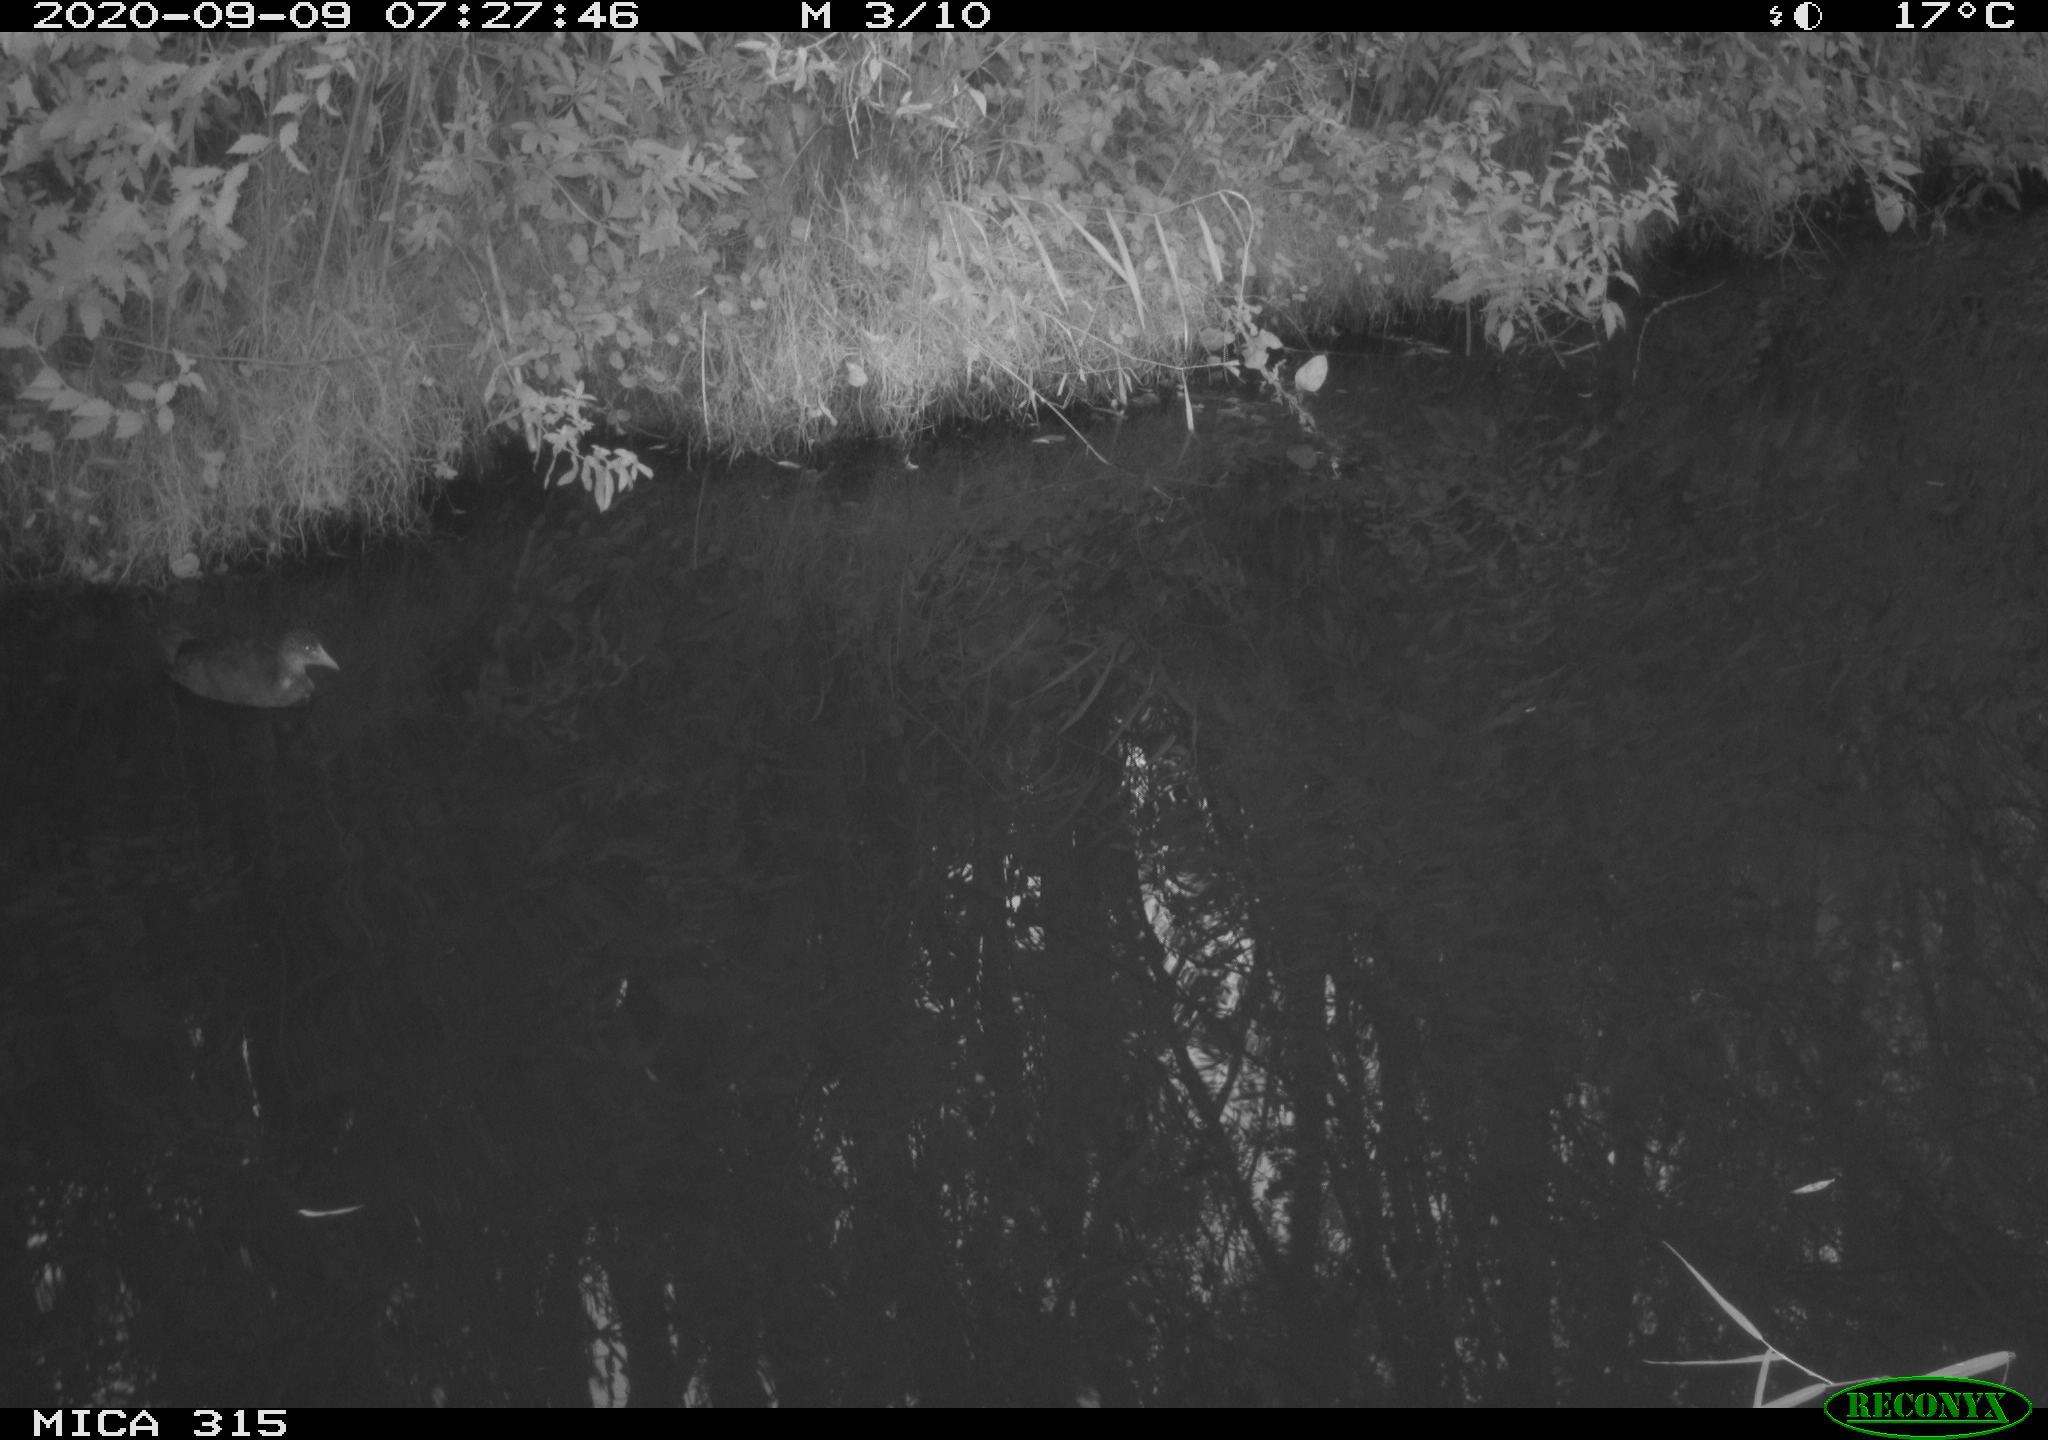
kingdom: Animalia
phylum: Chordata
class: Aves
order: Gruiformes
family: Rallidae
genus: Fulica
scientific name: Fulica atra
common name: Eurasian coot
